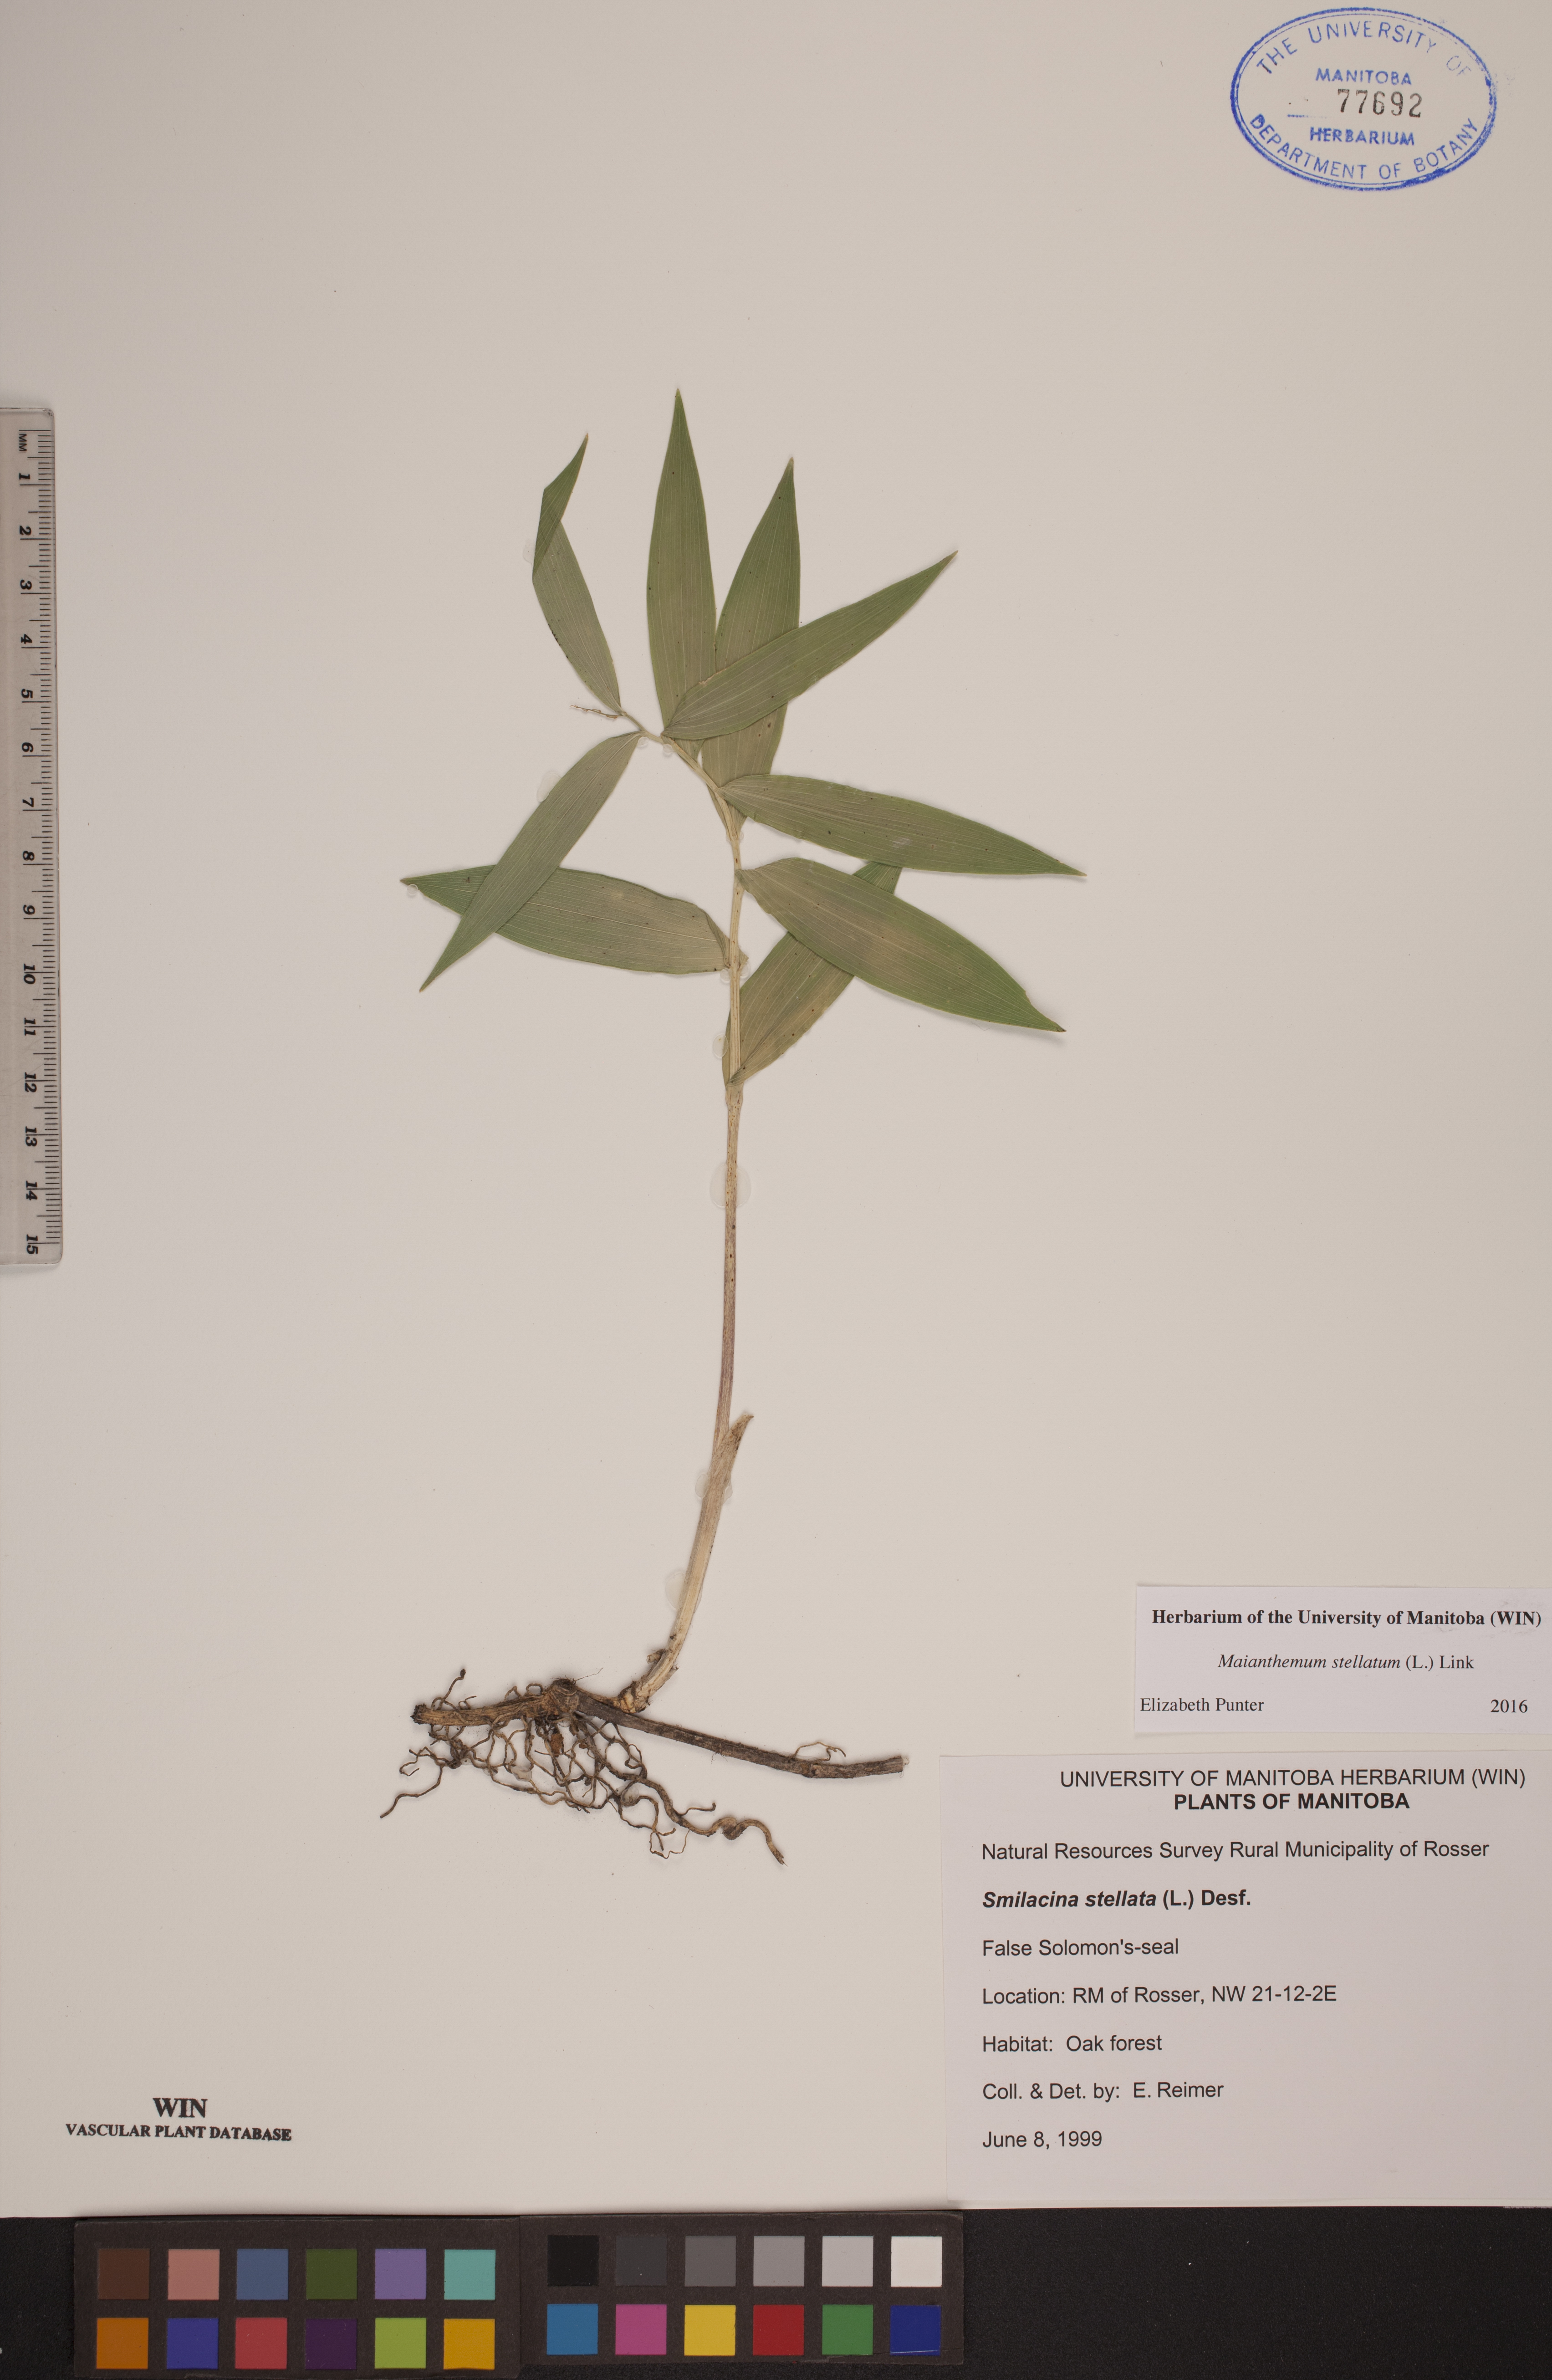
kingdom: Plantae
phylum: Tracheophyta
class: Liliopsida
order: Asparagales
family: Asparagaceae
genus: Maianthemum
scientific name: Maianthemum stellatum
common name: Little false solomon's seal
